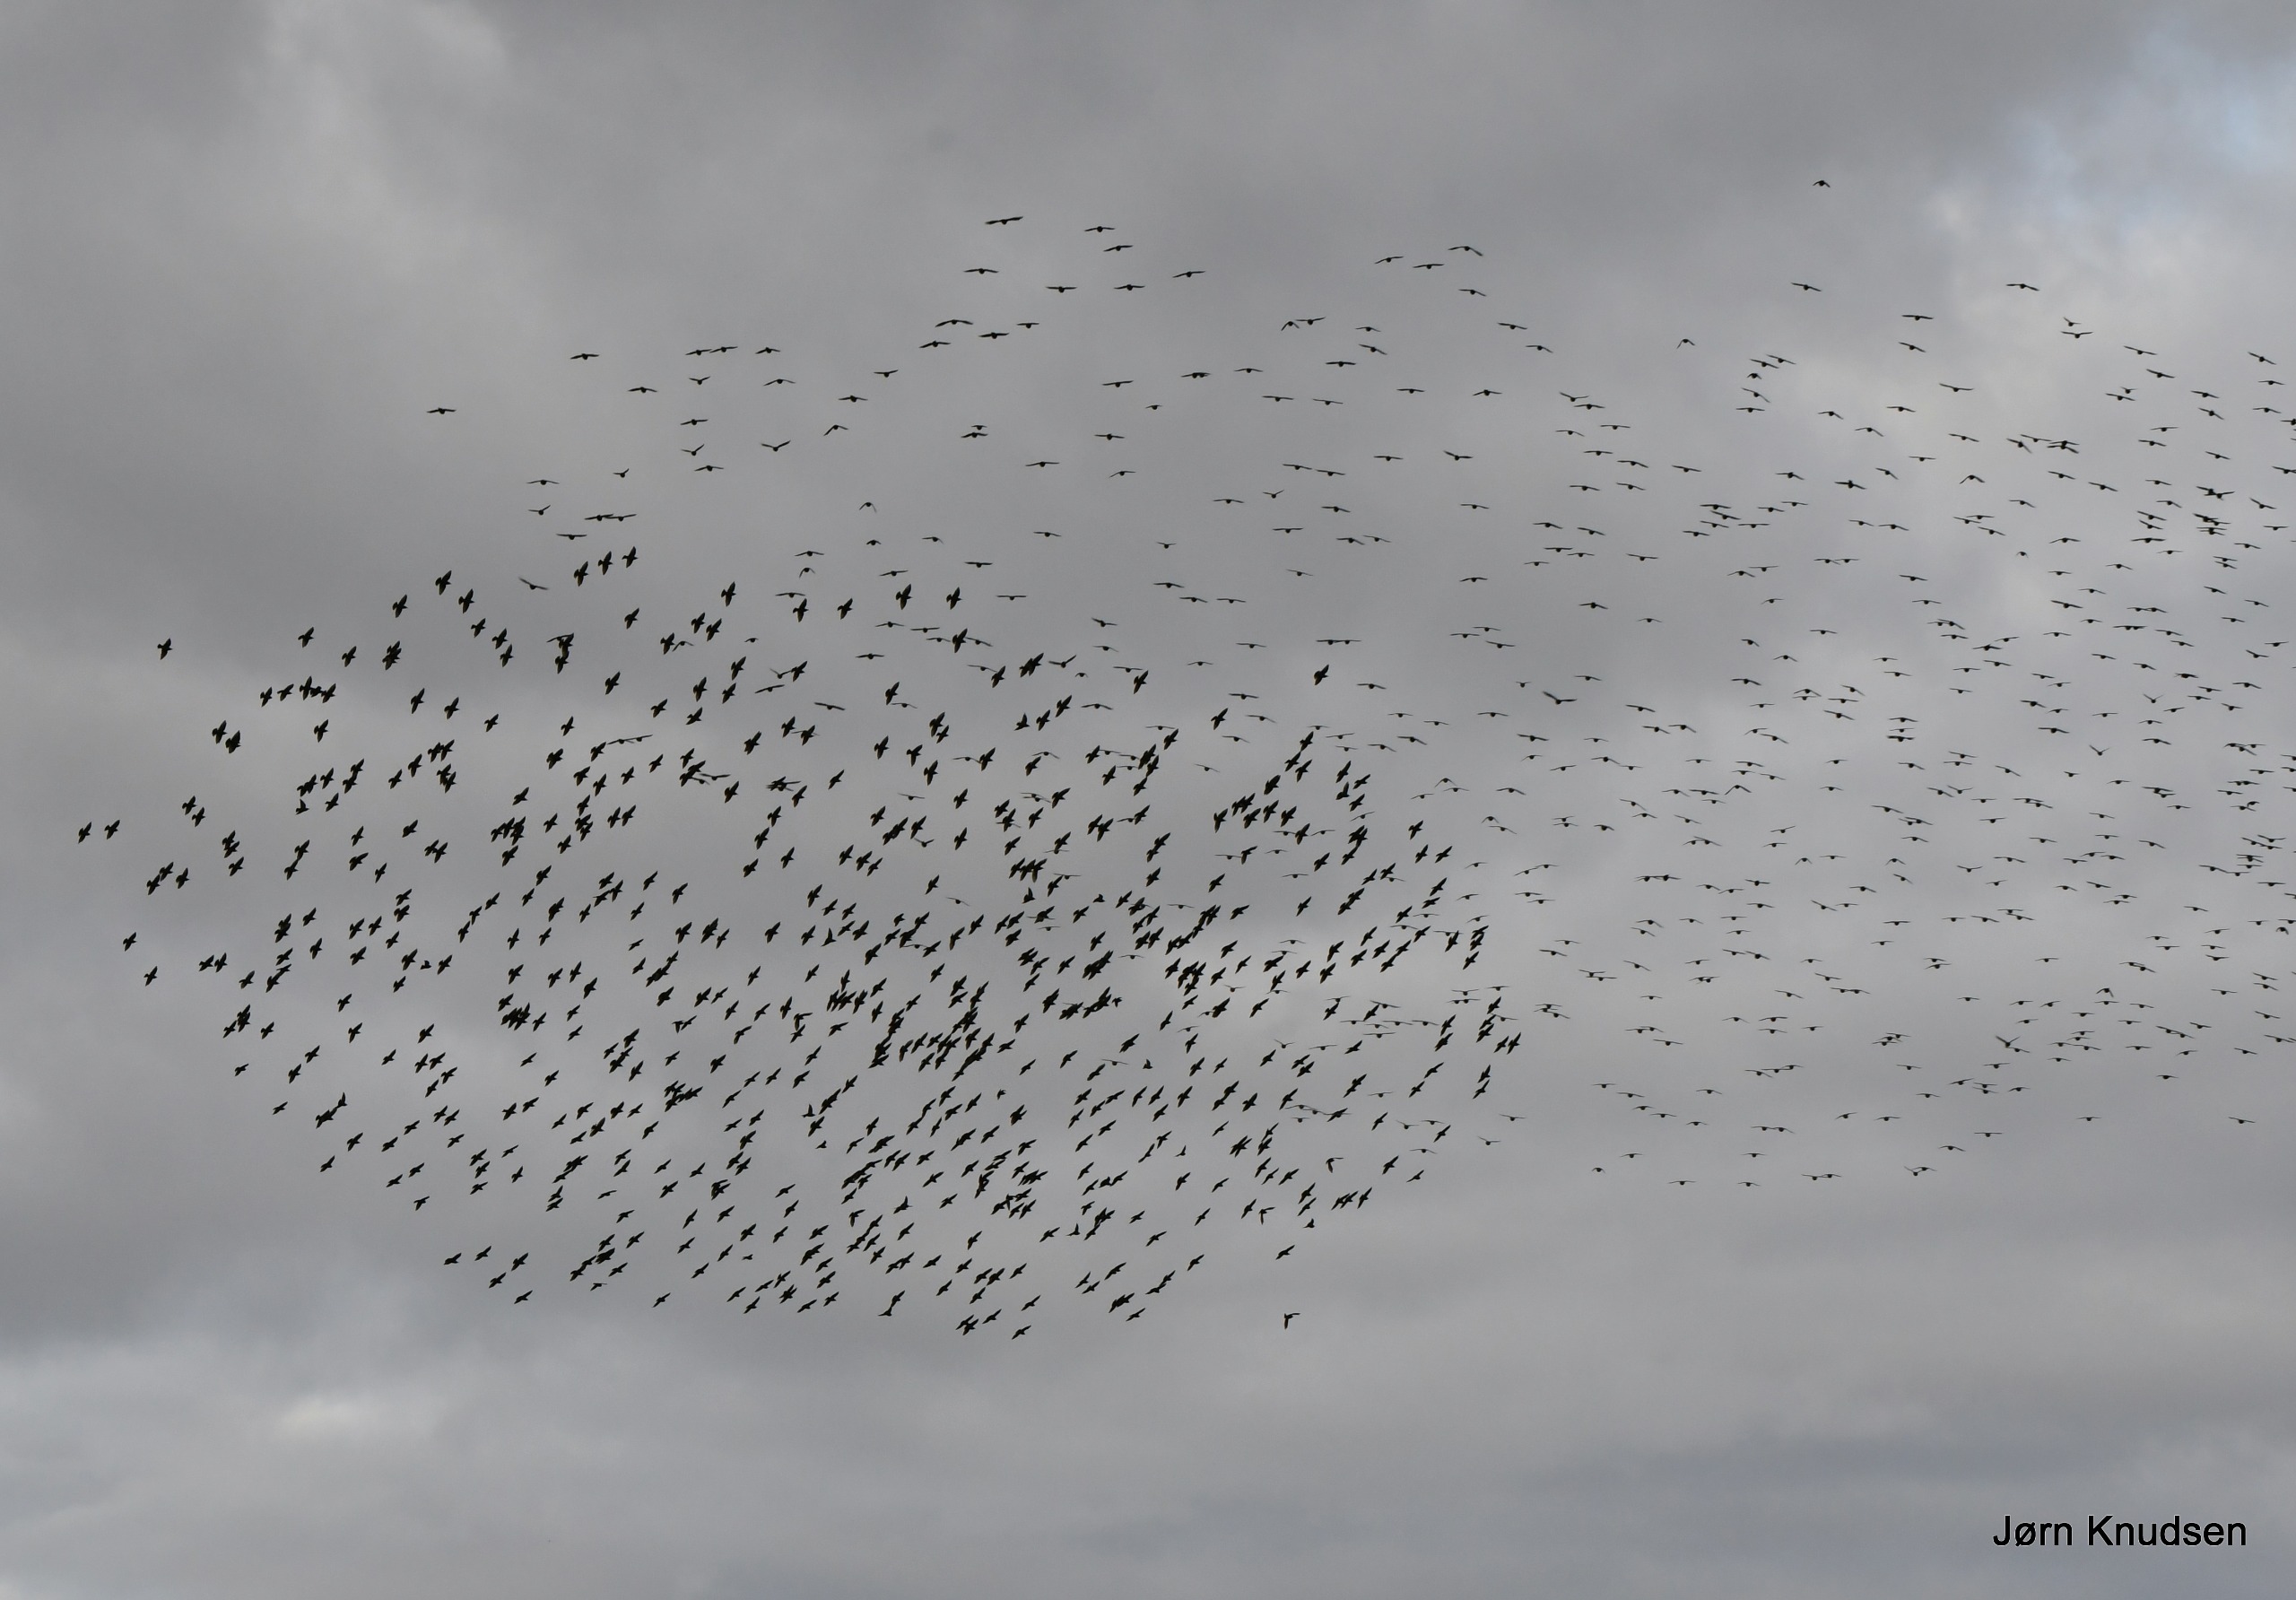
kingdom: Animalia
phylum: Chordata
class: Aves
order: Passeriformes
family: Sturnidae
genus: Sturnus
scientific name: Sturnus vulgaris
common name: Stær
